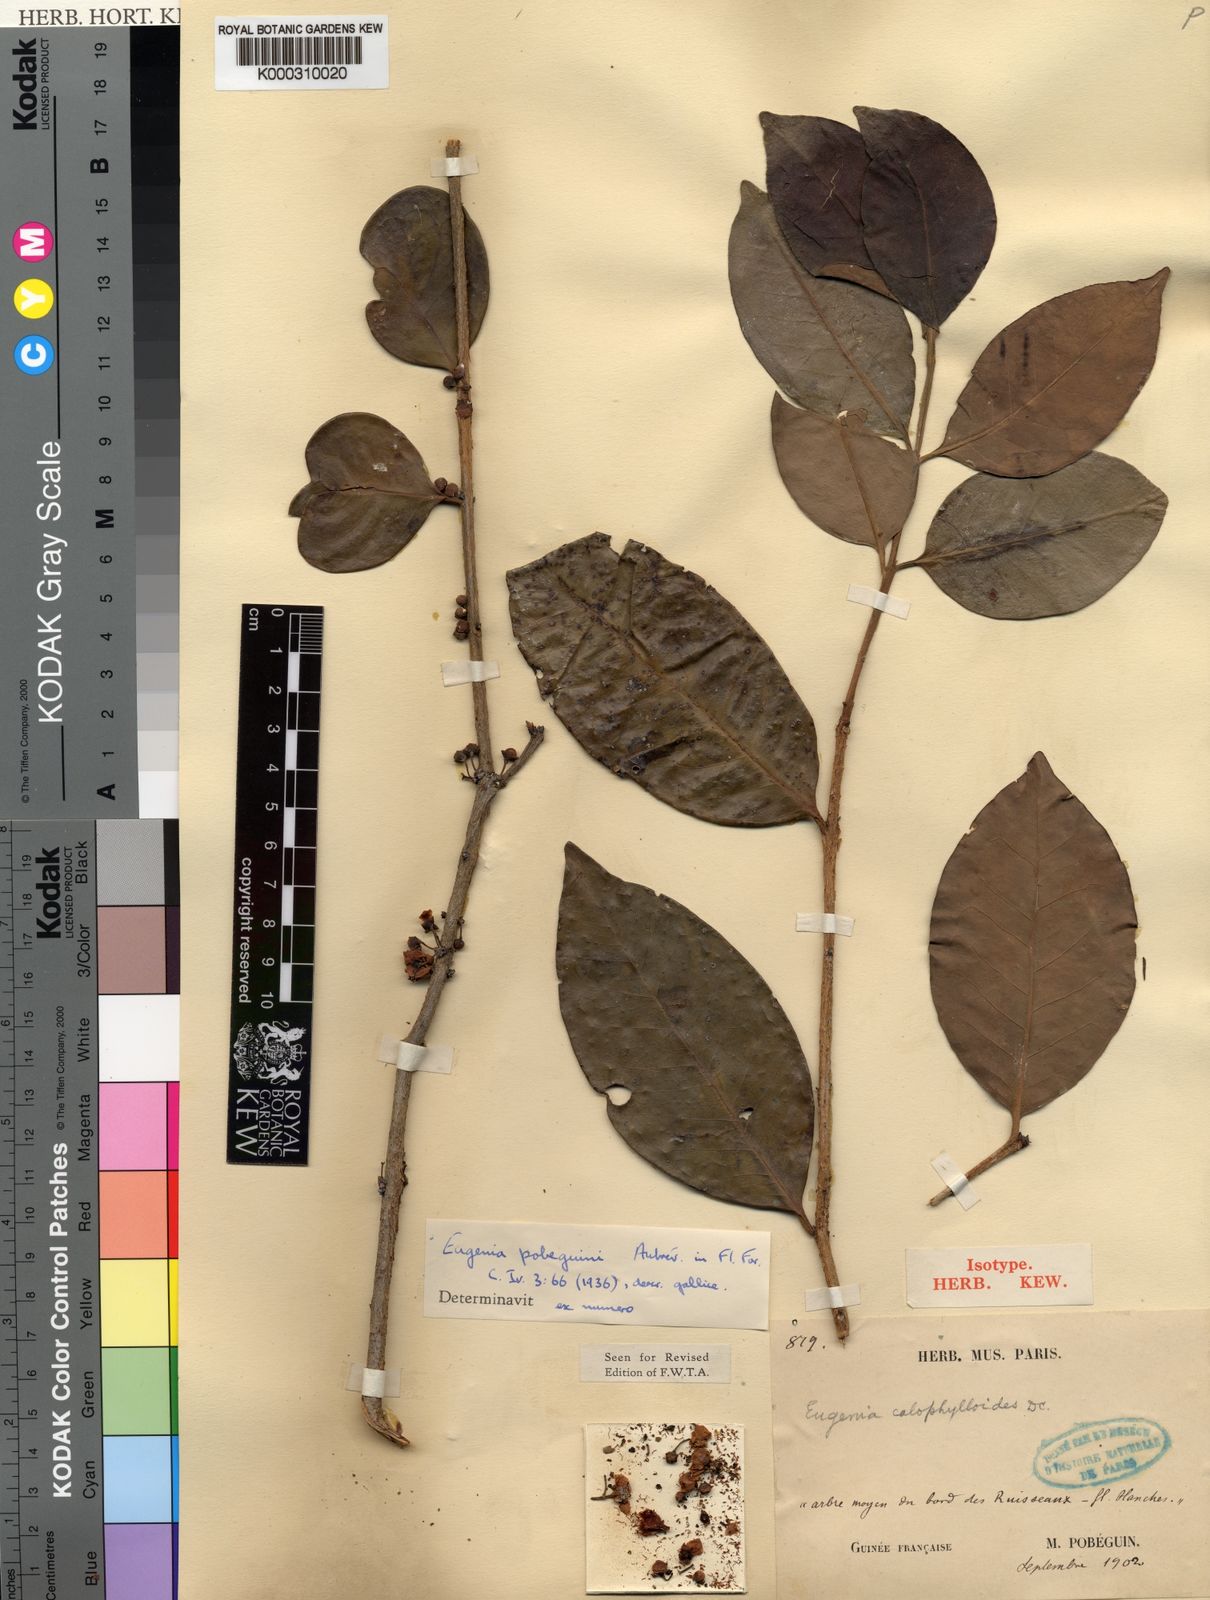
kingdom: Plantae
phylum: Tracheophyta
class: Magnoliopsida
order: Myrtales
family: Myrtaceae
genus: Eugenia
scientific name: Eugenia
